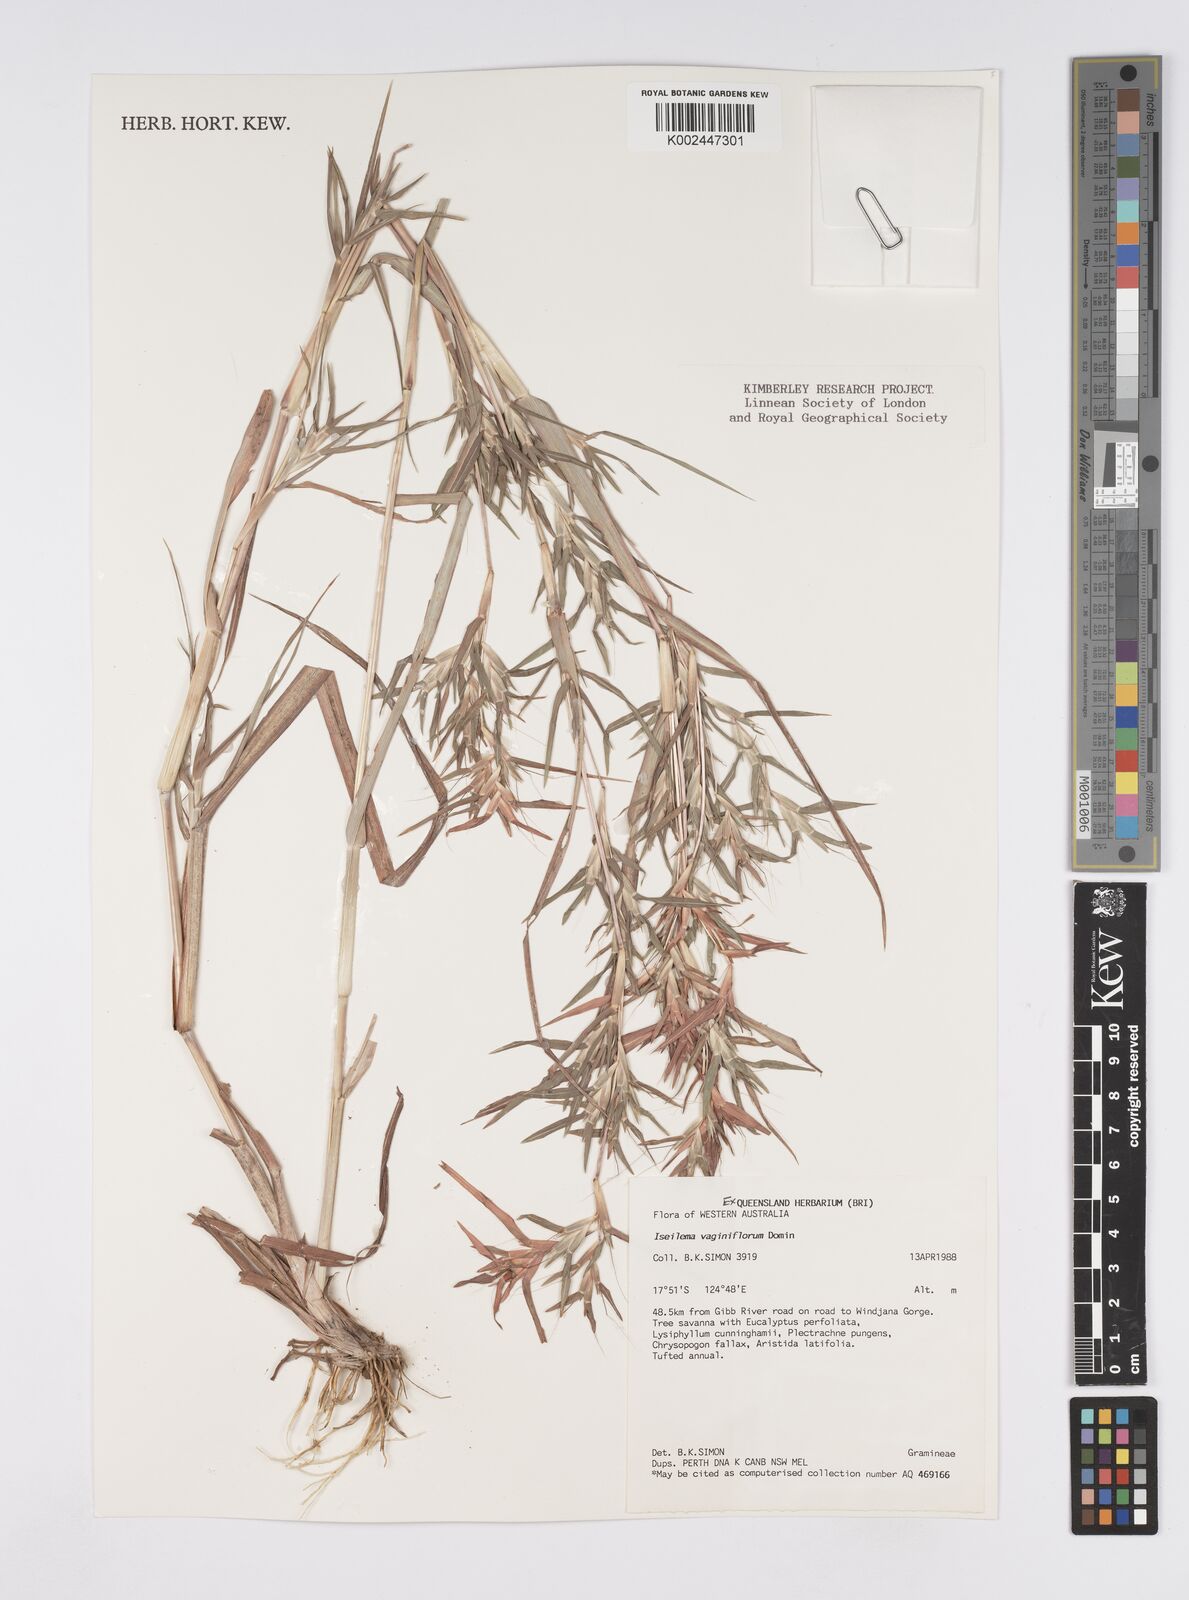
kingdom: Plantae
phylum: Tracheophyta
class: Liliopsida
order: Poales
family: Poaceae
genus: Iseilema
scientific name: Iseilema vaginiflorum
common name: Red flinders grass
